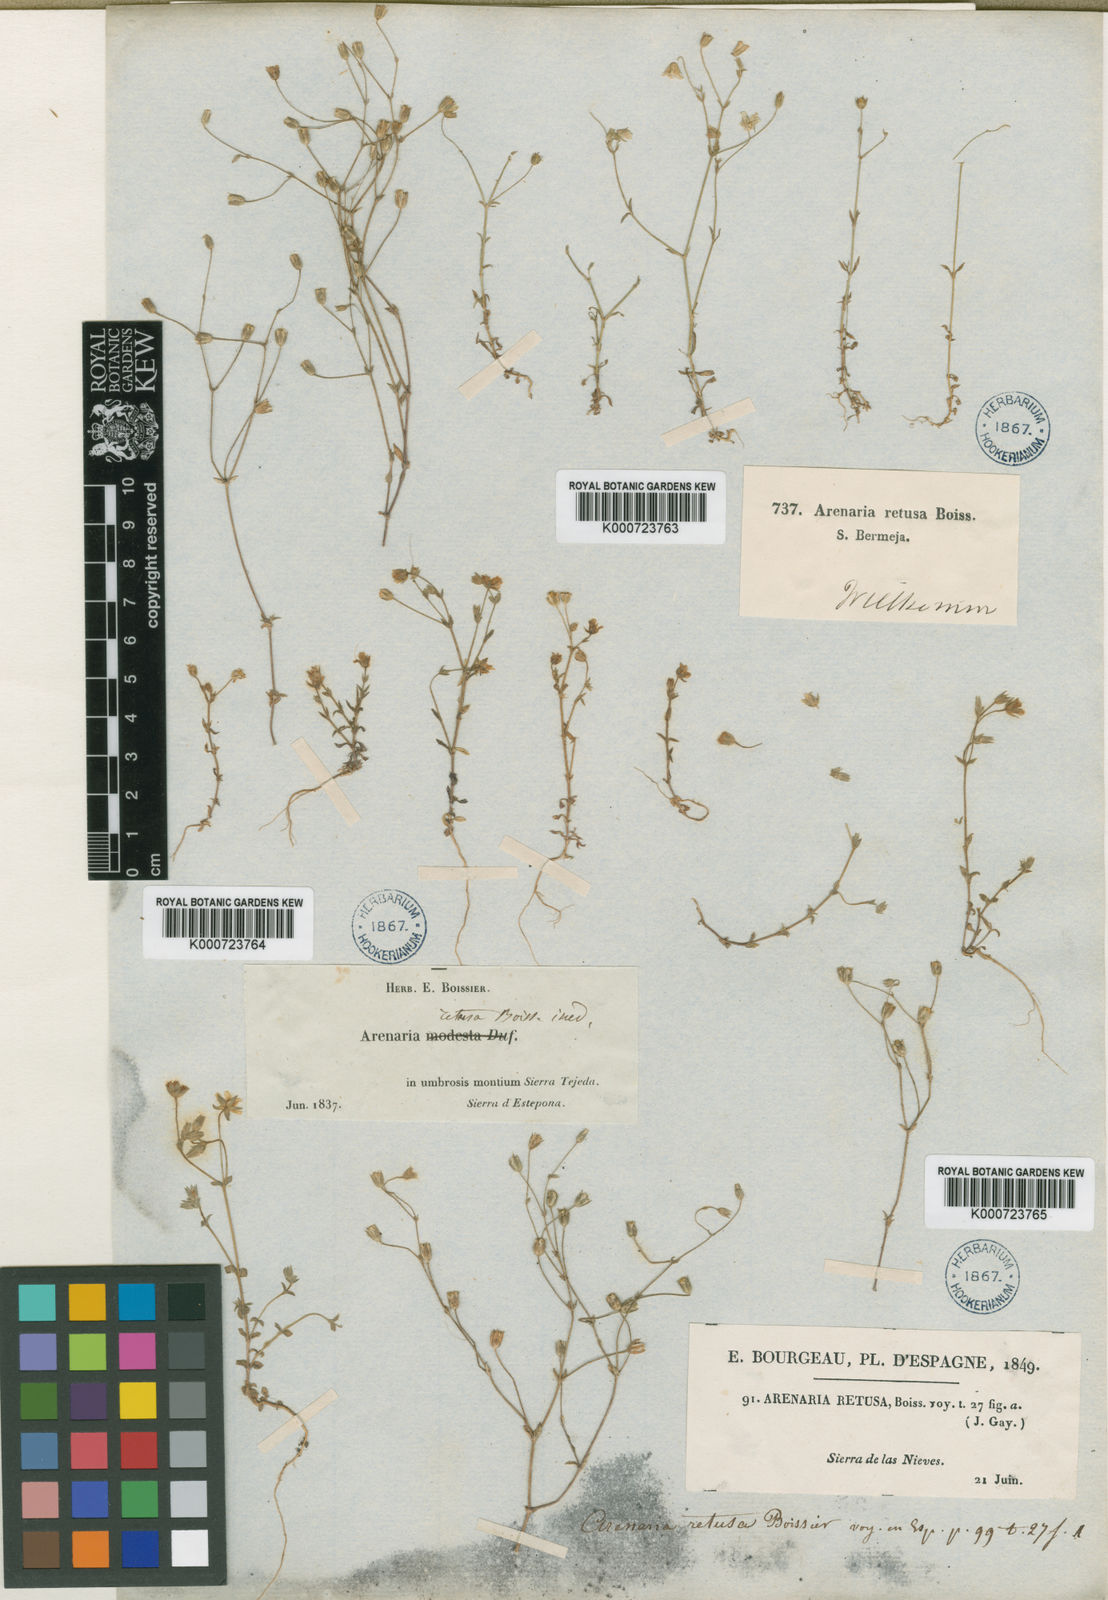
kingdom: Plantae
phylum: Tracheophyta
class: Magnoliopsida
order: Caryophyllales
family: Caryophyllaceae
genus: Arenaria
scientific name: Arenaria retusa
